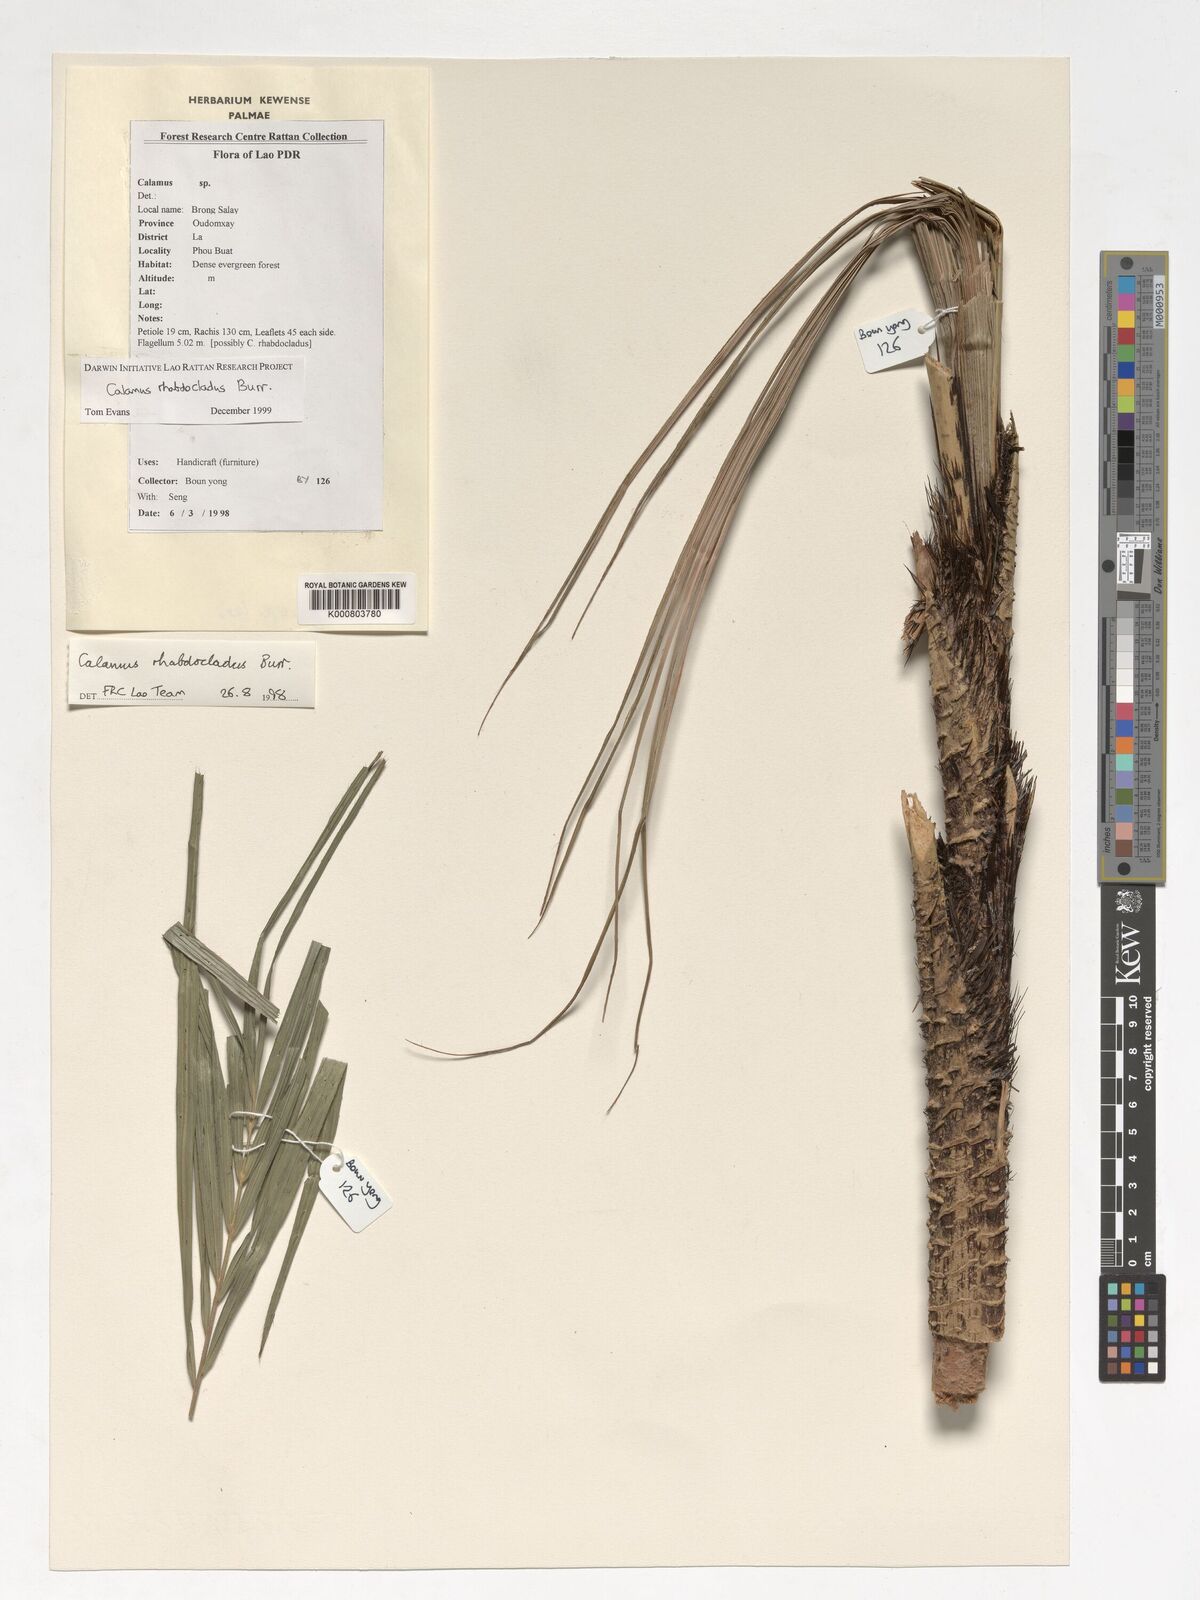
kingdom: Plantae
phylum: Tracheophyta
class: Liliopsida
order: Arecales
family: Arecaceae
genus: Calamus
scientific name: Calamus rhabdocladus
